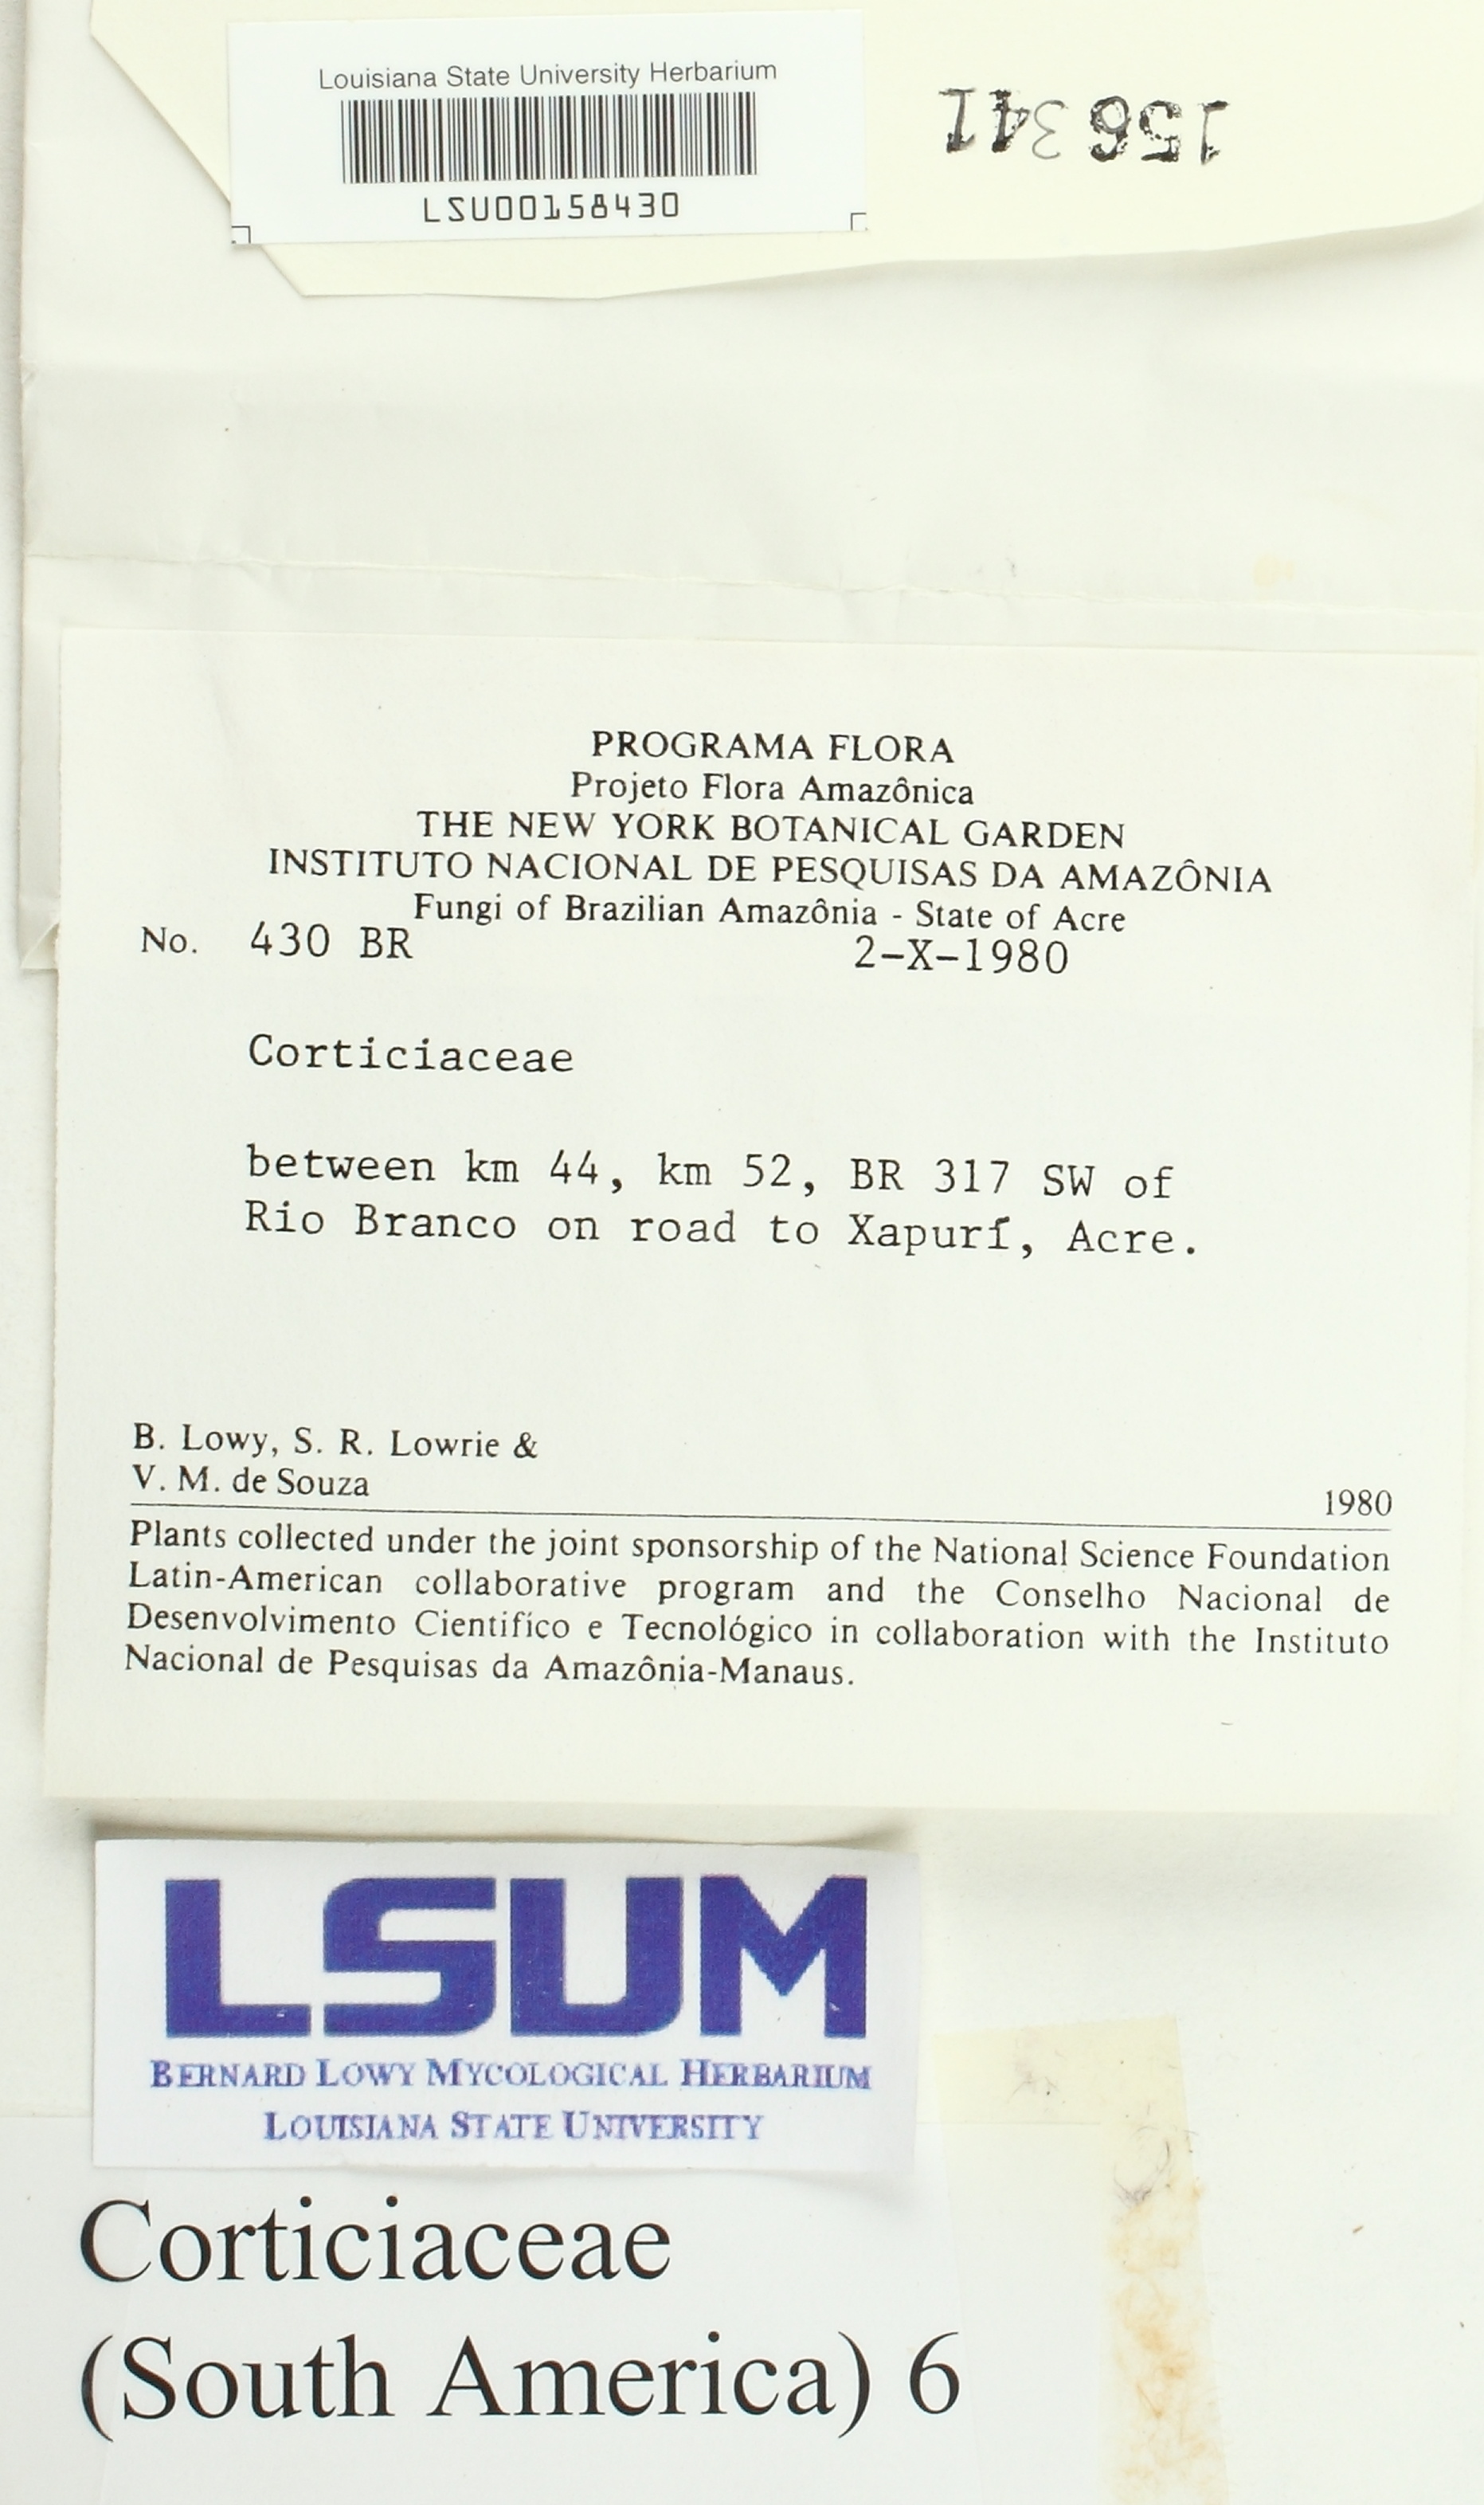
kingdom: Fungi
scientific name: Fungi
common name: Fungi
